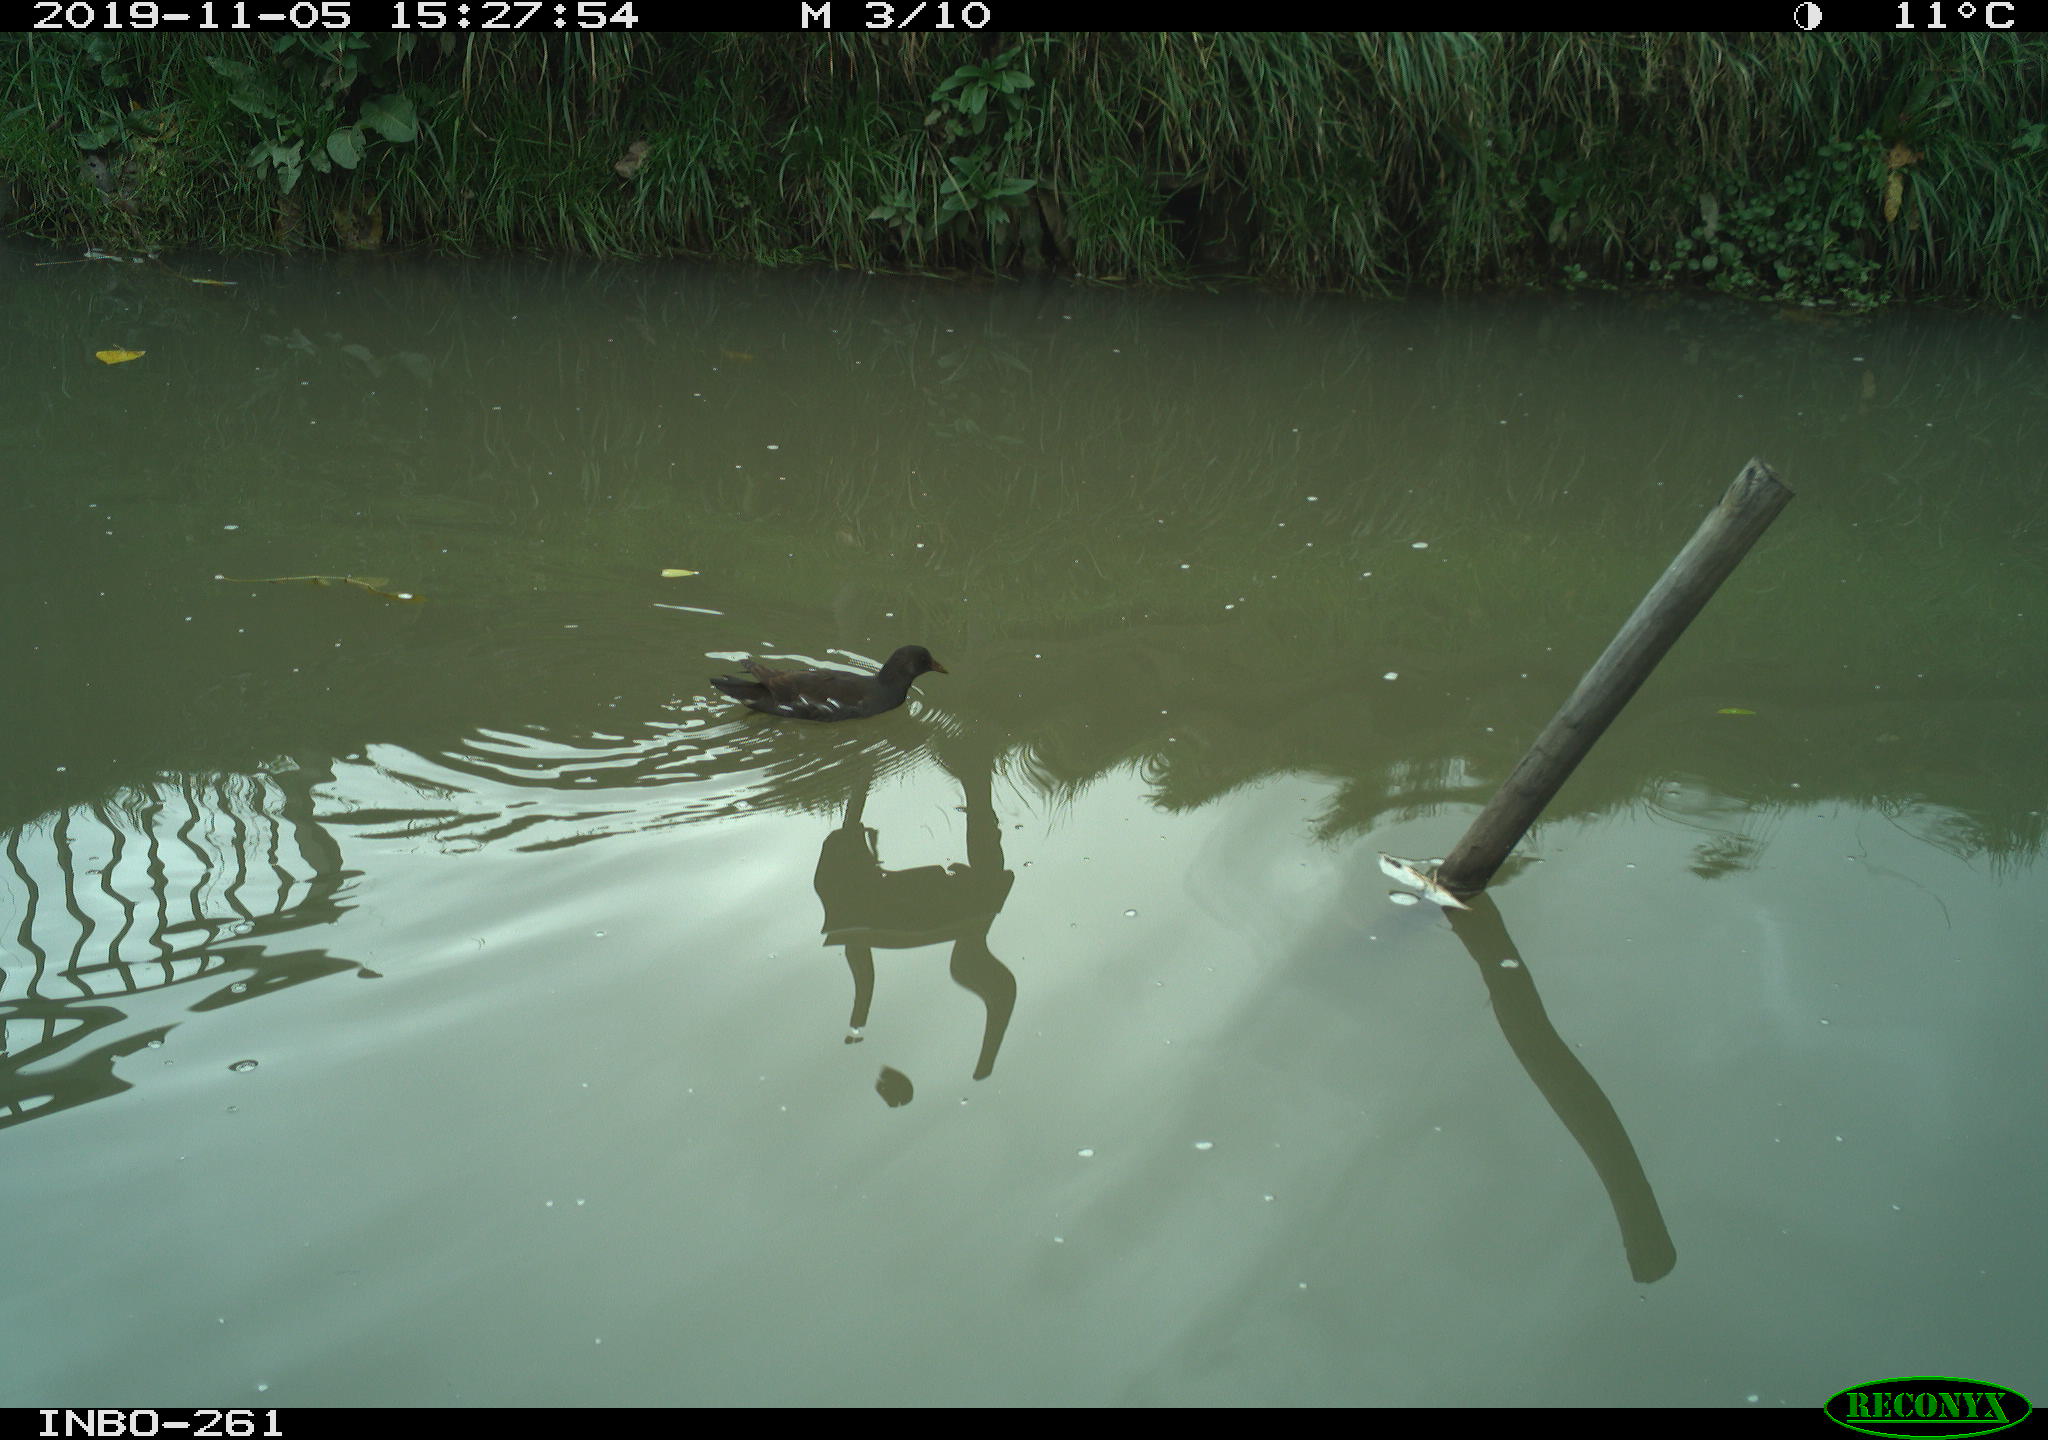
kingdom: Animalia
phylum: Chordata
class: Aves
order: Gruiformes
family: Rallidae
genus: Gallinula
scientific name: Gallinula chloropus
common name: Common moorhen
